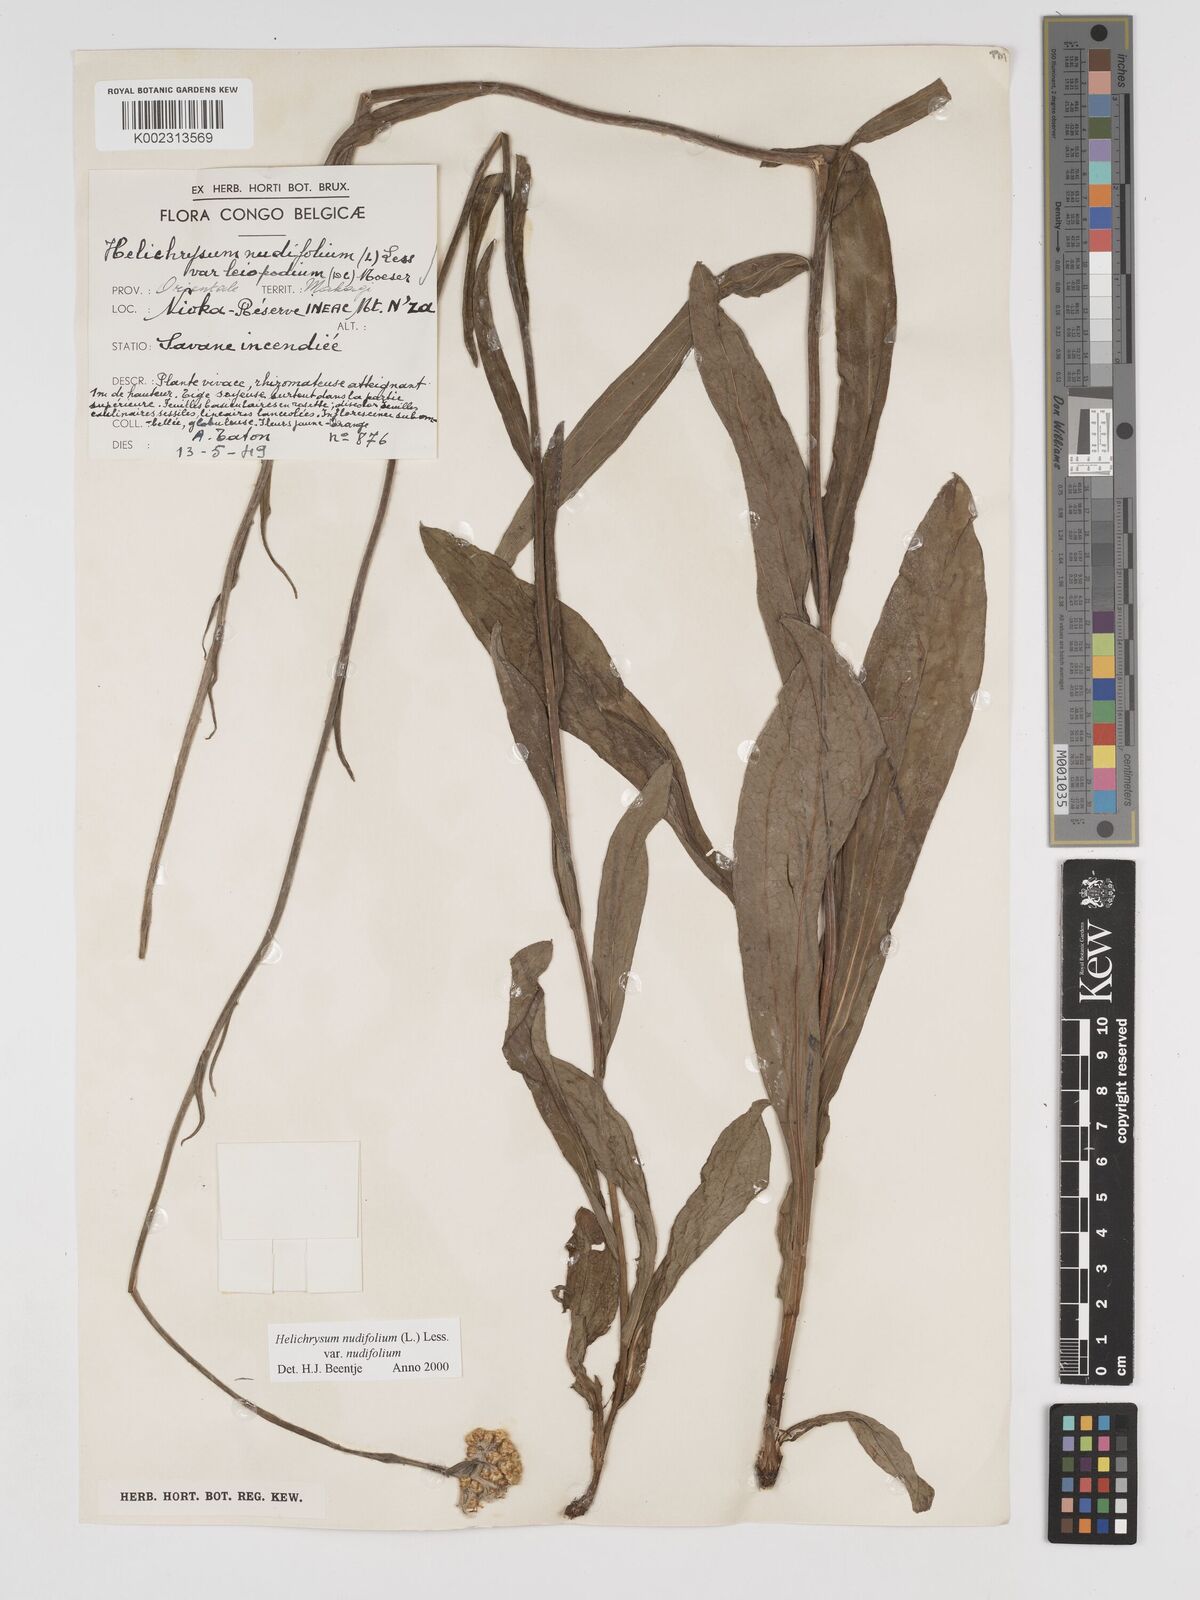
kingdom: Plantae
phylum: Tracheophyta
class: Magnoliopsida
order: Asterales
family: Asteraceae
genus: Helichrysum
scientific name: Helichrysum nudifolium
